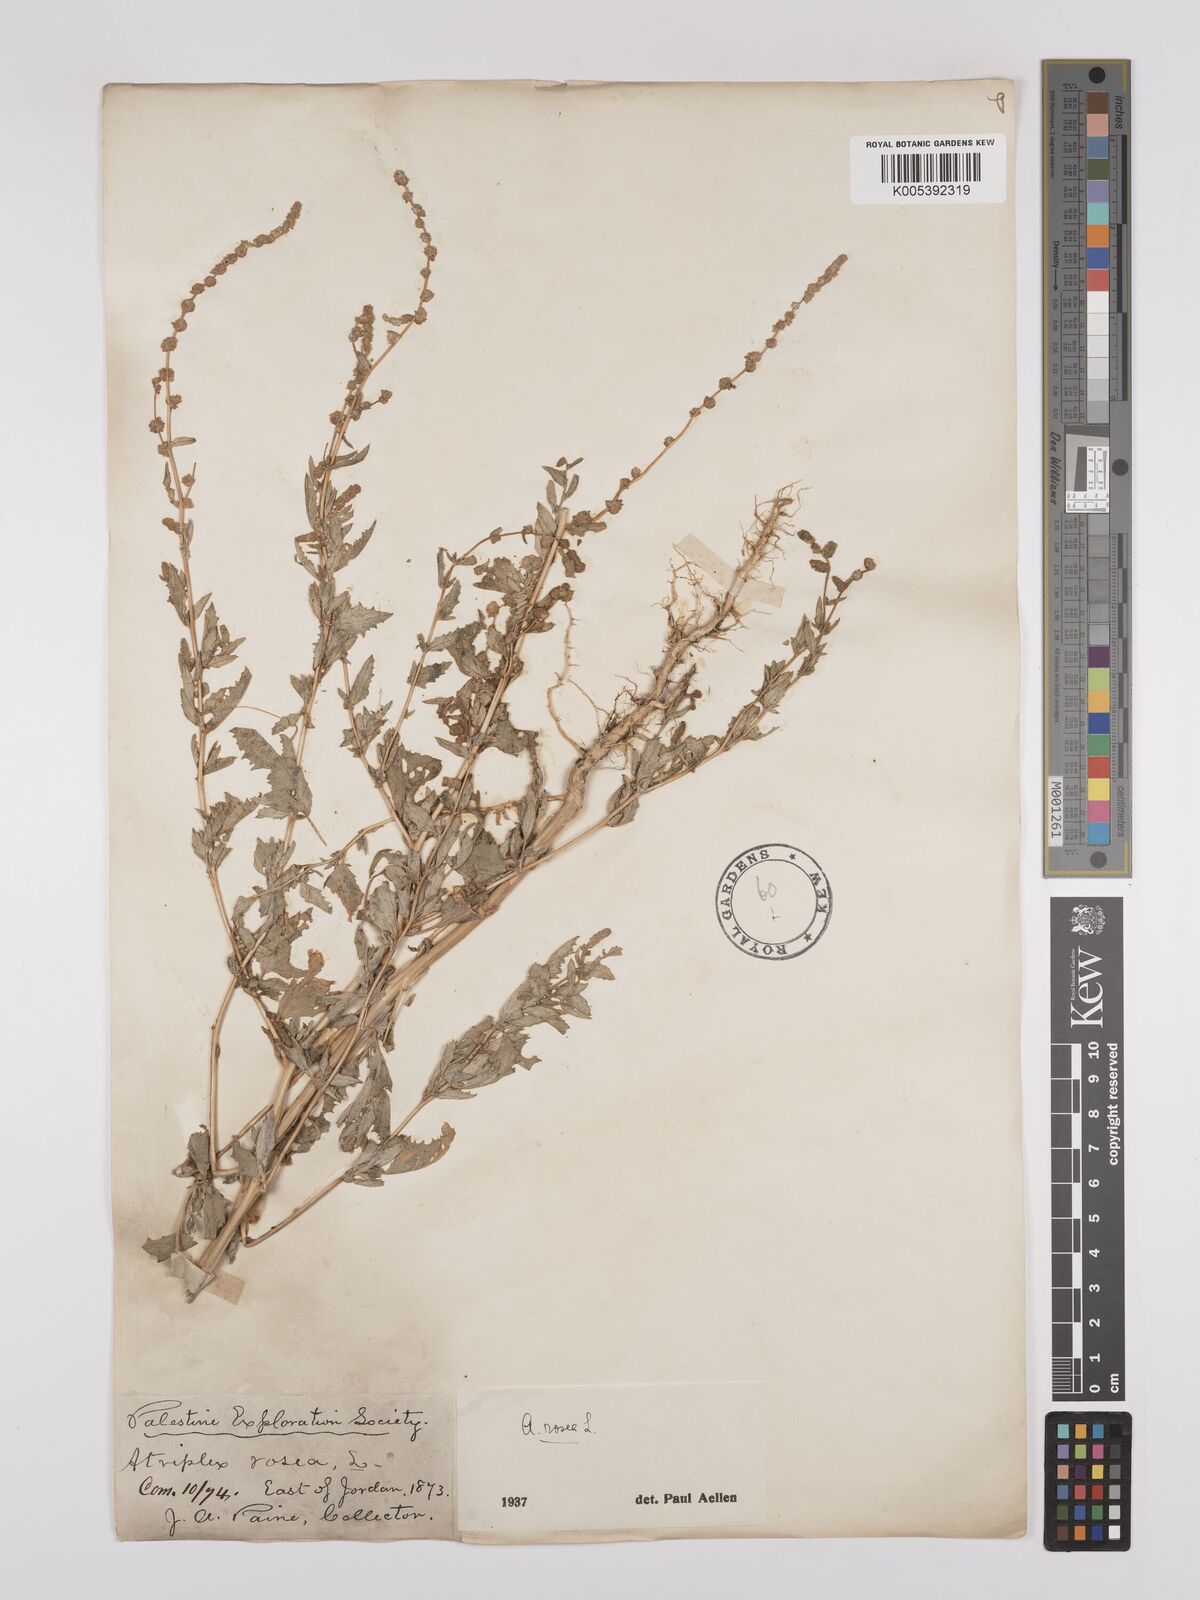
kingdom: Plantae
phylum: Tracheophyta
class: Magnoliopsida
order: Caryophyllales
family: Amaranthaceae
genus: Atriplex
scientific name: Atriplex
